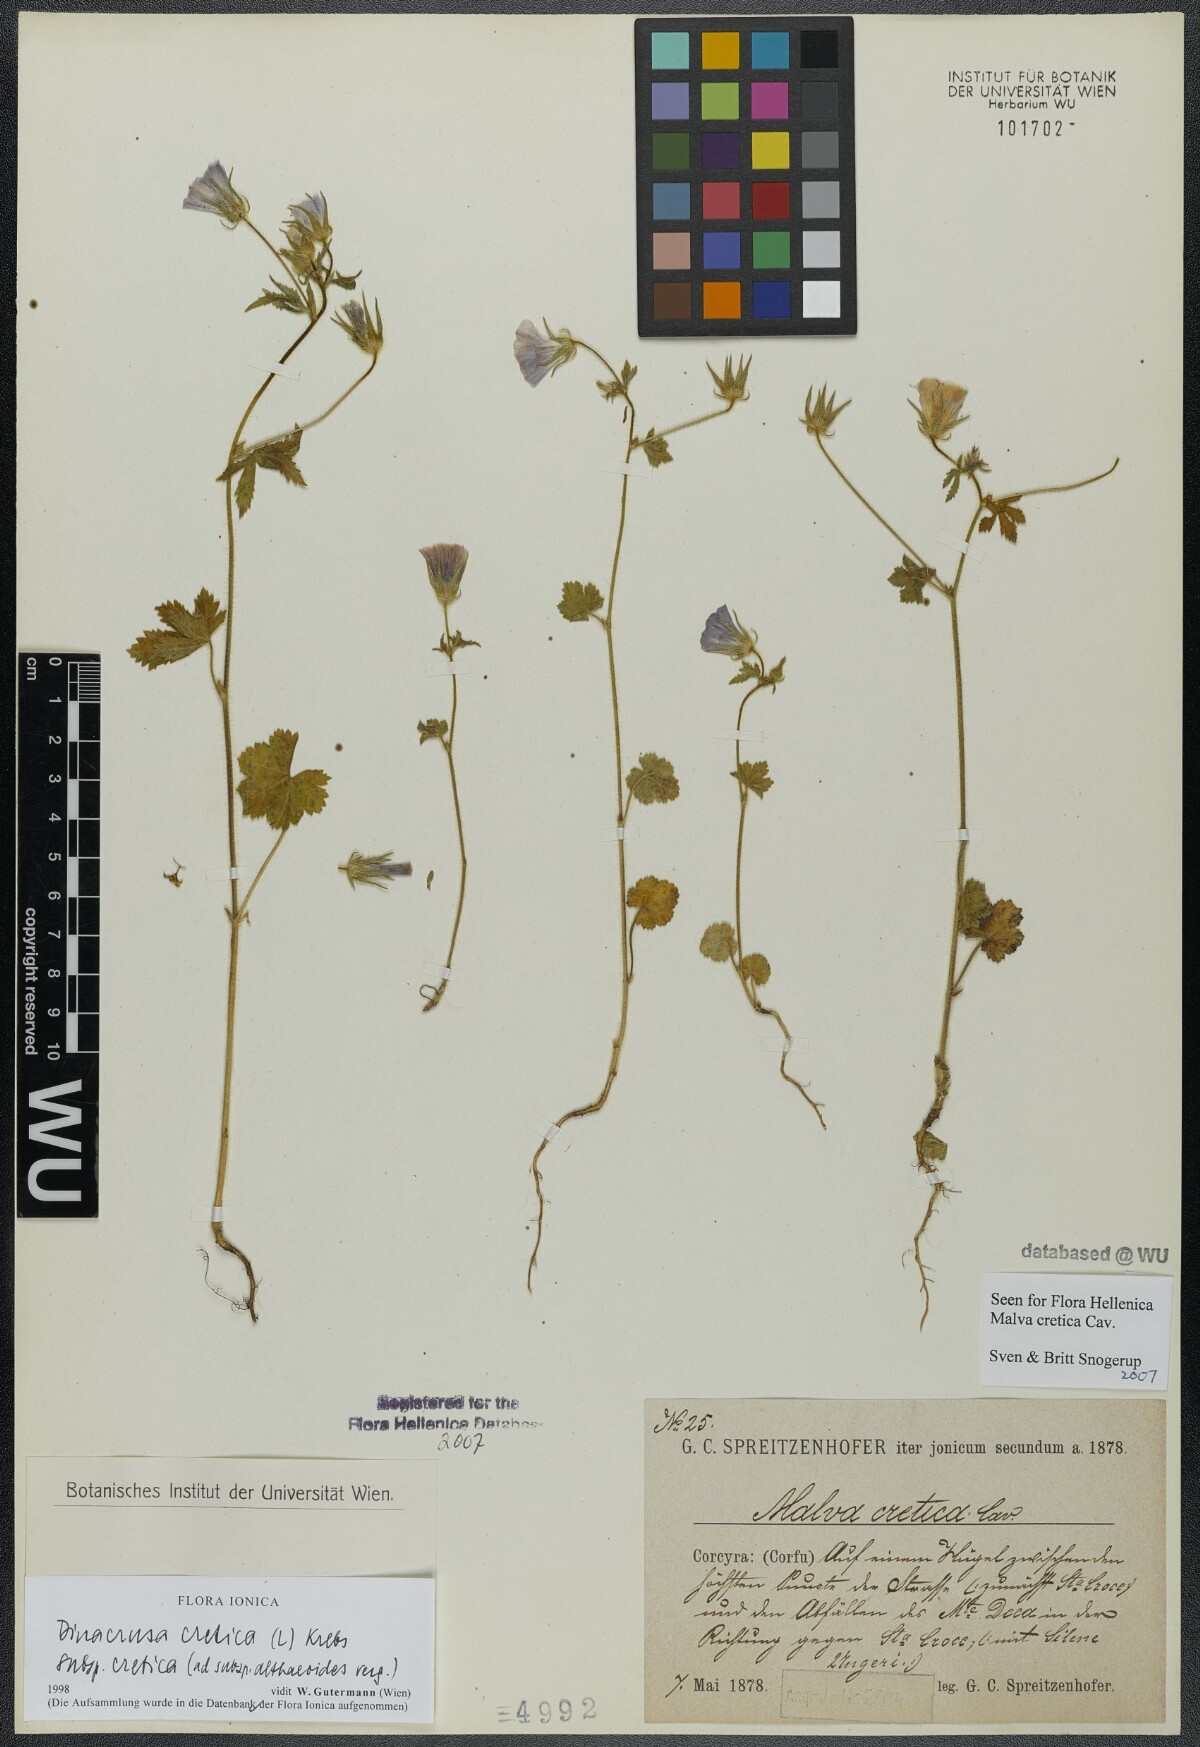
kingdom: Plantae
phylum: Tracheophyta
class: Magnoliopsida
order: Malvales
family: Malvaceae
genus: Malva
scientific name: Malva cretica
